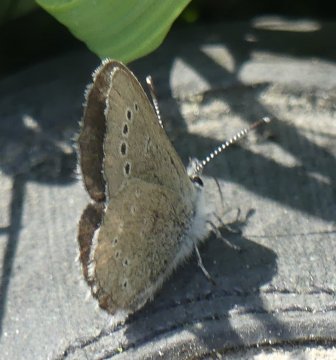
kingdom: Animalia
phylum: Arthropoda
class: Insecta
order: Lepidoptera
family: Lycaenidae
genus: Glaucopsyche
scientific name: Glaucopsyche lygdamus
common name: Silvery Blue
